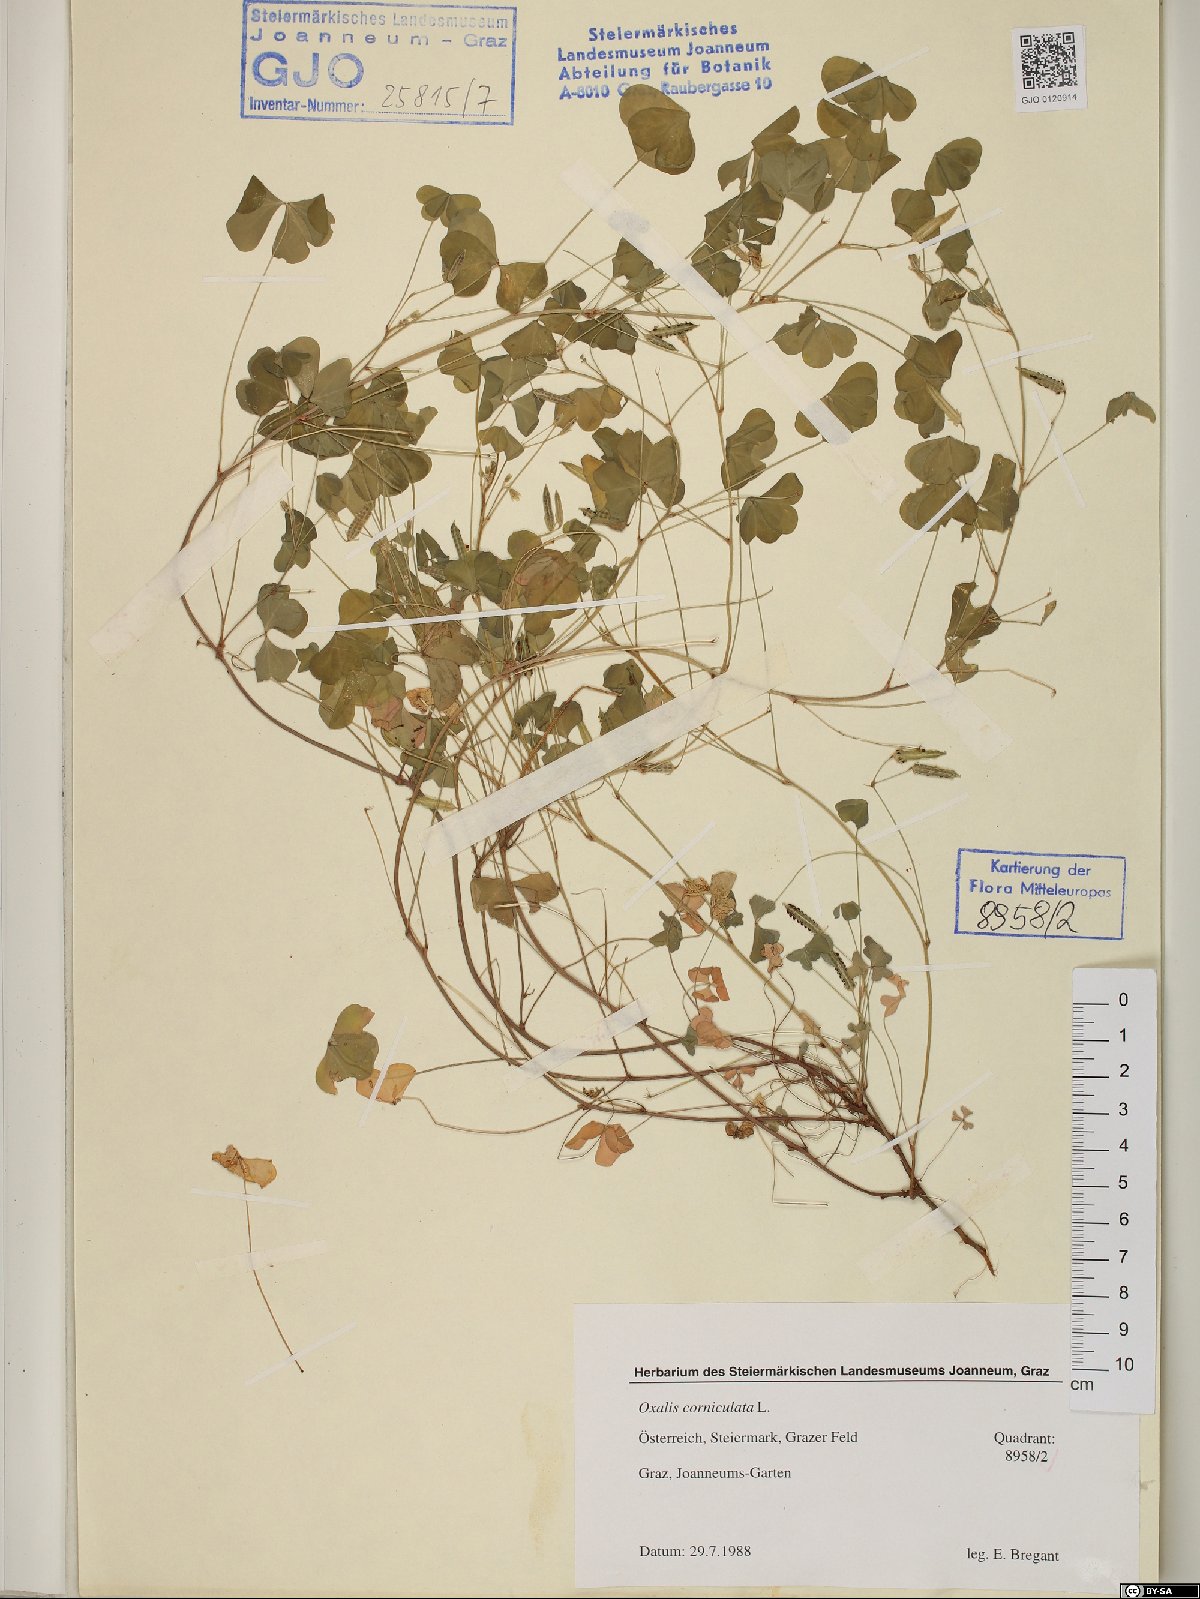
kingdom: Plantae
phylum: Tracheophyta
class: Magnoliopsida
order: Oxalidales
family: Oxalidaceae
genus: Oxalis
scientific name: Oxalis corniculata
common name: Procumbent yellow-sorrel
